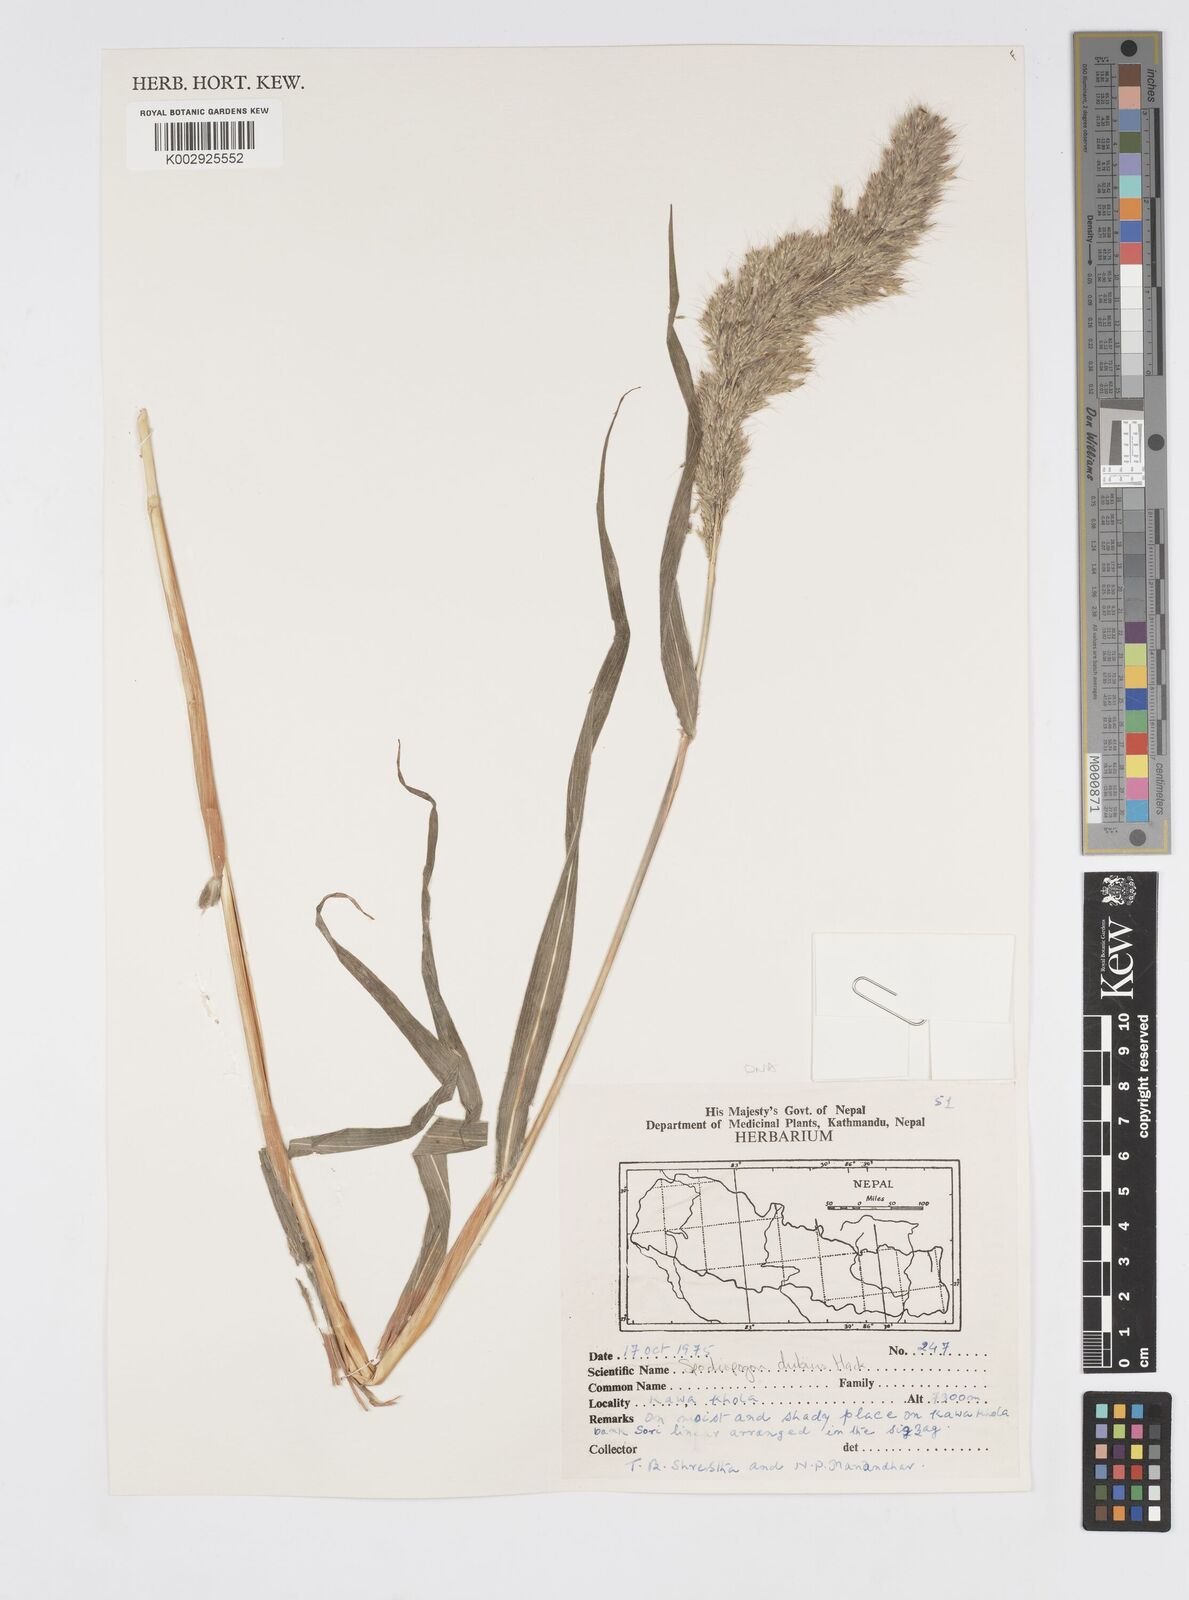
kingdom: Plantae
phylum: Tracheophyta
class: Liliopsida
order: Poales
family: Poaceae
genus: Spodiopogon
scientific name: Spodiopogon dubius
